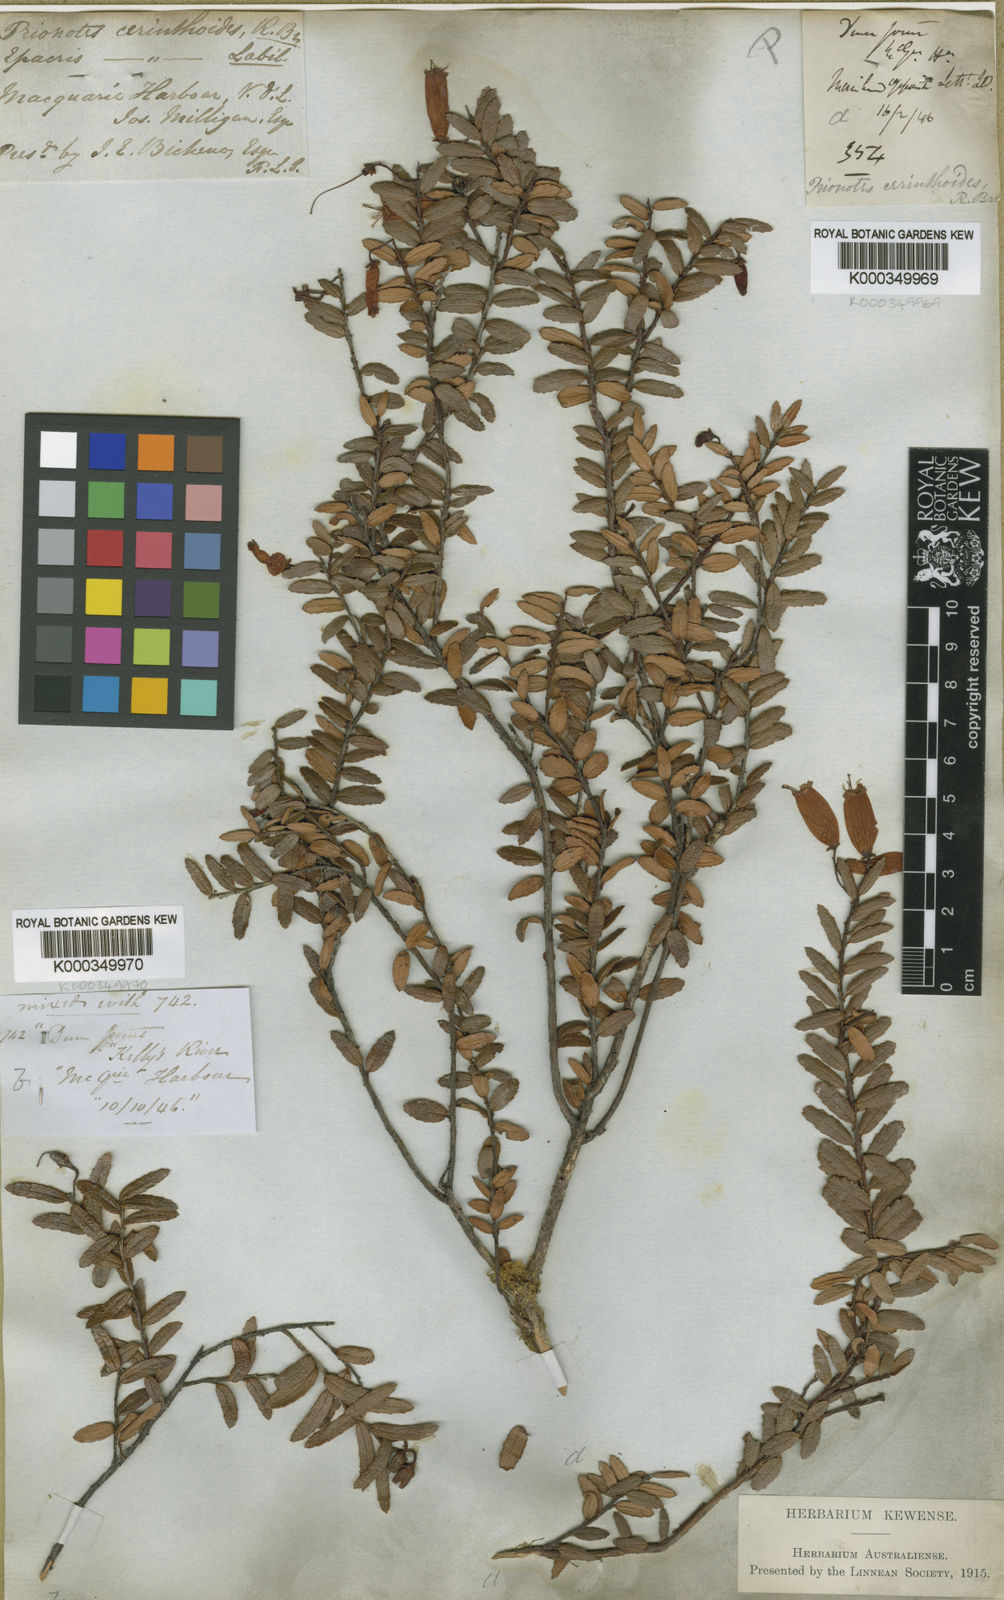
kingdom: Plantae
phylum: Tracheophyta
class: Magnoliopsida
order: Ericales
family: Ericaceae
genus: Prionotes
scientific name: Prionotes cerinthoides
